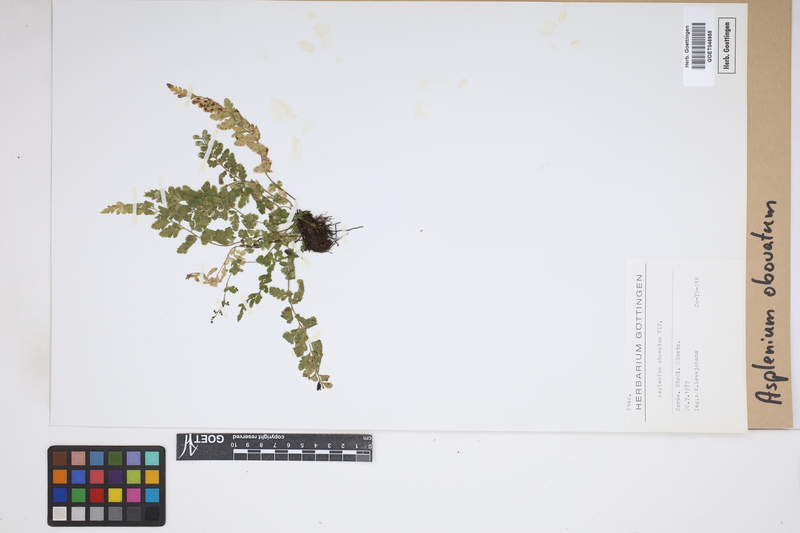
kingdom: Plantae
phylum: Tracheophyta
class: Polypodiopsida
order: Polypodiales
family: Aspleniaceae
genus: Asplenium
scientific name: Asplenium obovatum
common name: Lanceolate spleenwort
